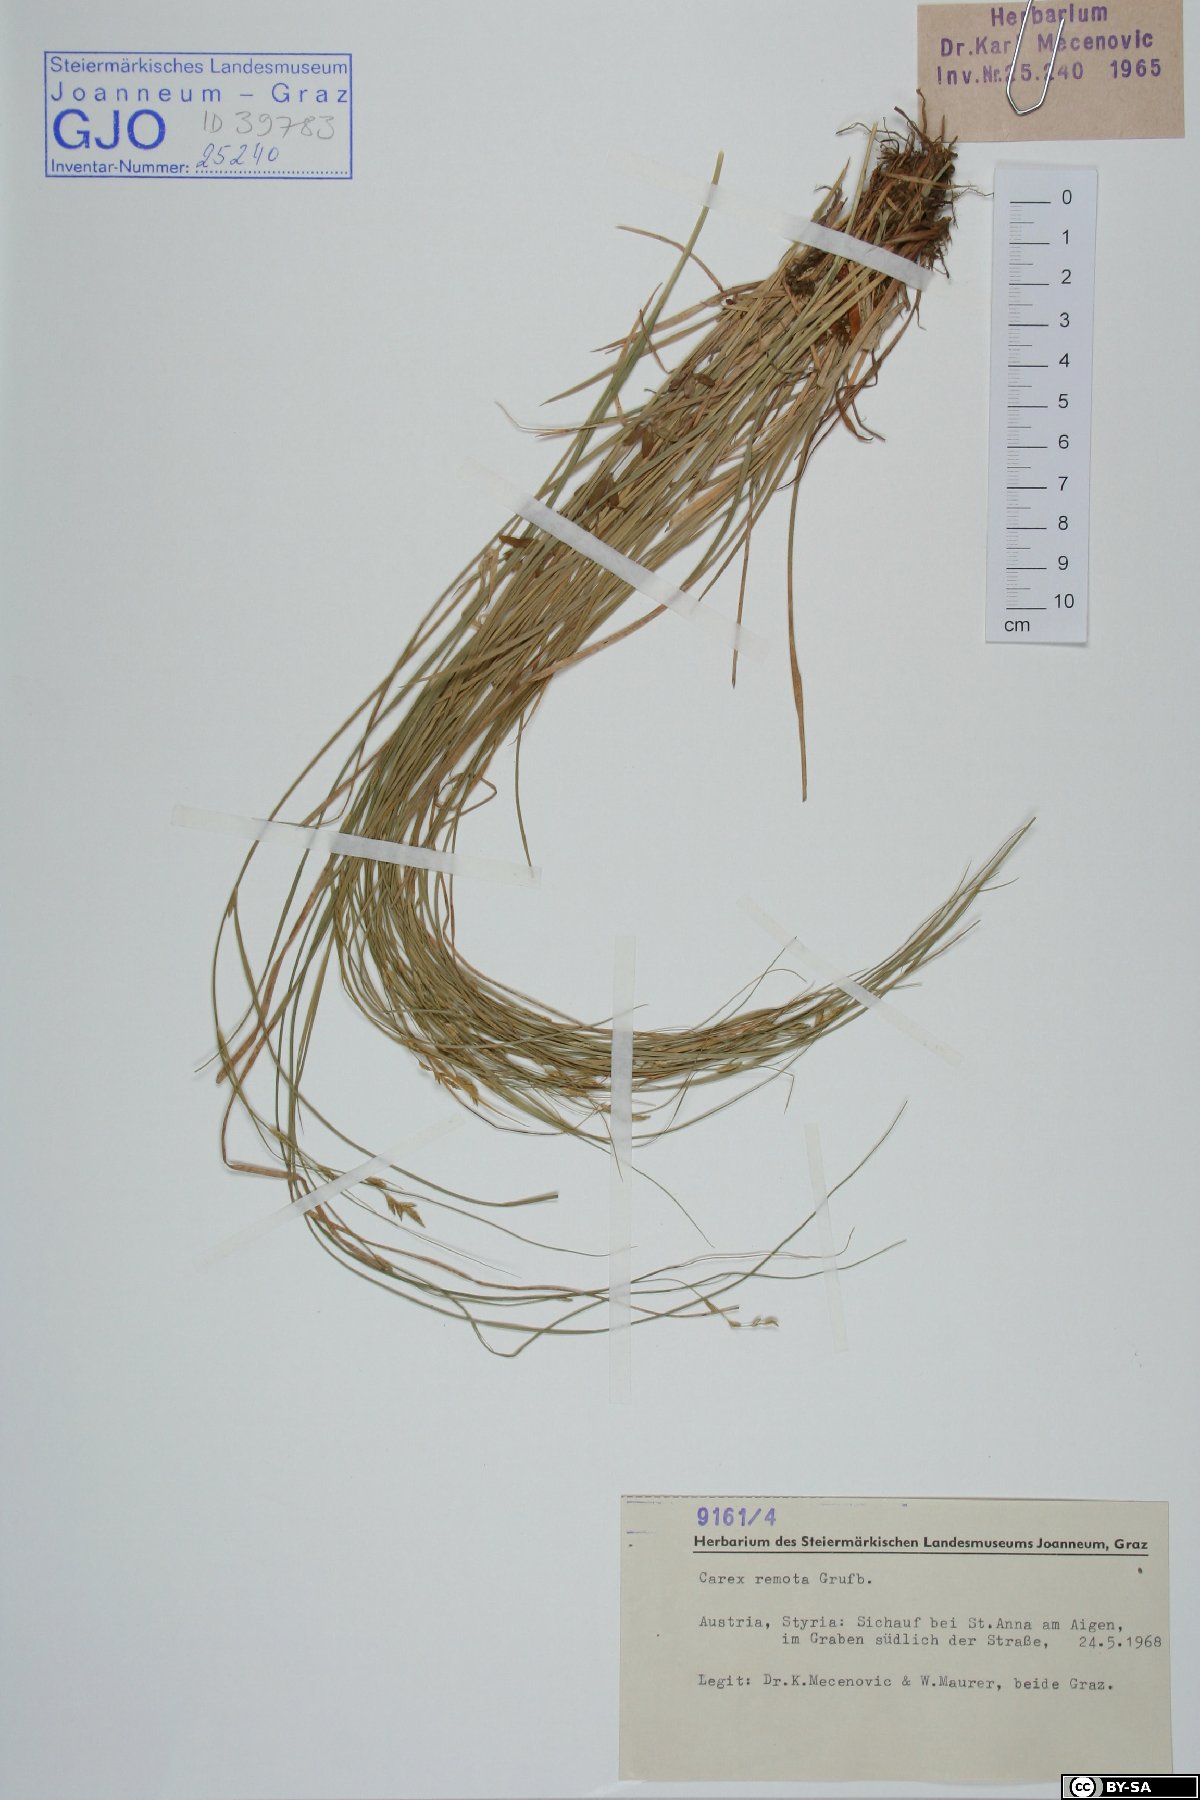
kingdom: Plantae
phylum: Tracheophyta
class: Liliopsida
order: Poales
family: Cyperaceae
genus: Carex
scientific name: Carex remota
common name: Remote sedge
